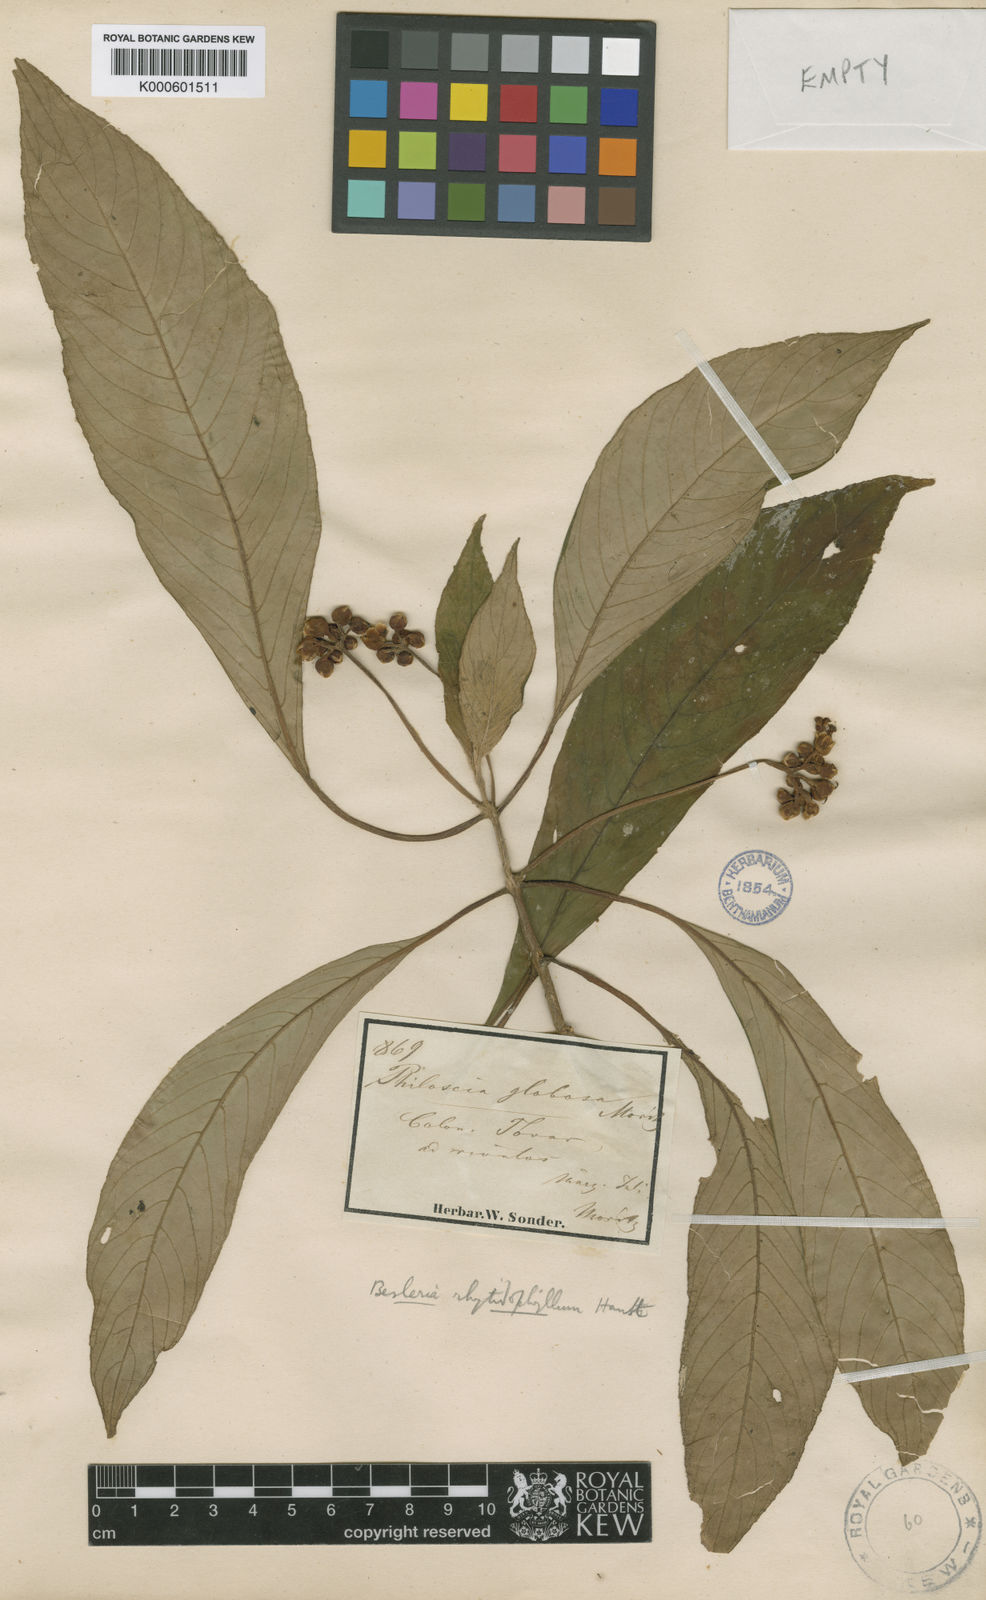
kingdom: Plantae
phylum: Tracheophyta
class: Magnoliopsida
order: Lamiales
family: Gesneriaceae
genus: Besleria
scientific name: Besleria rhytidophyllum
